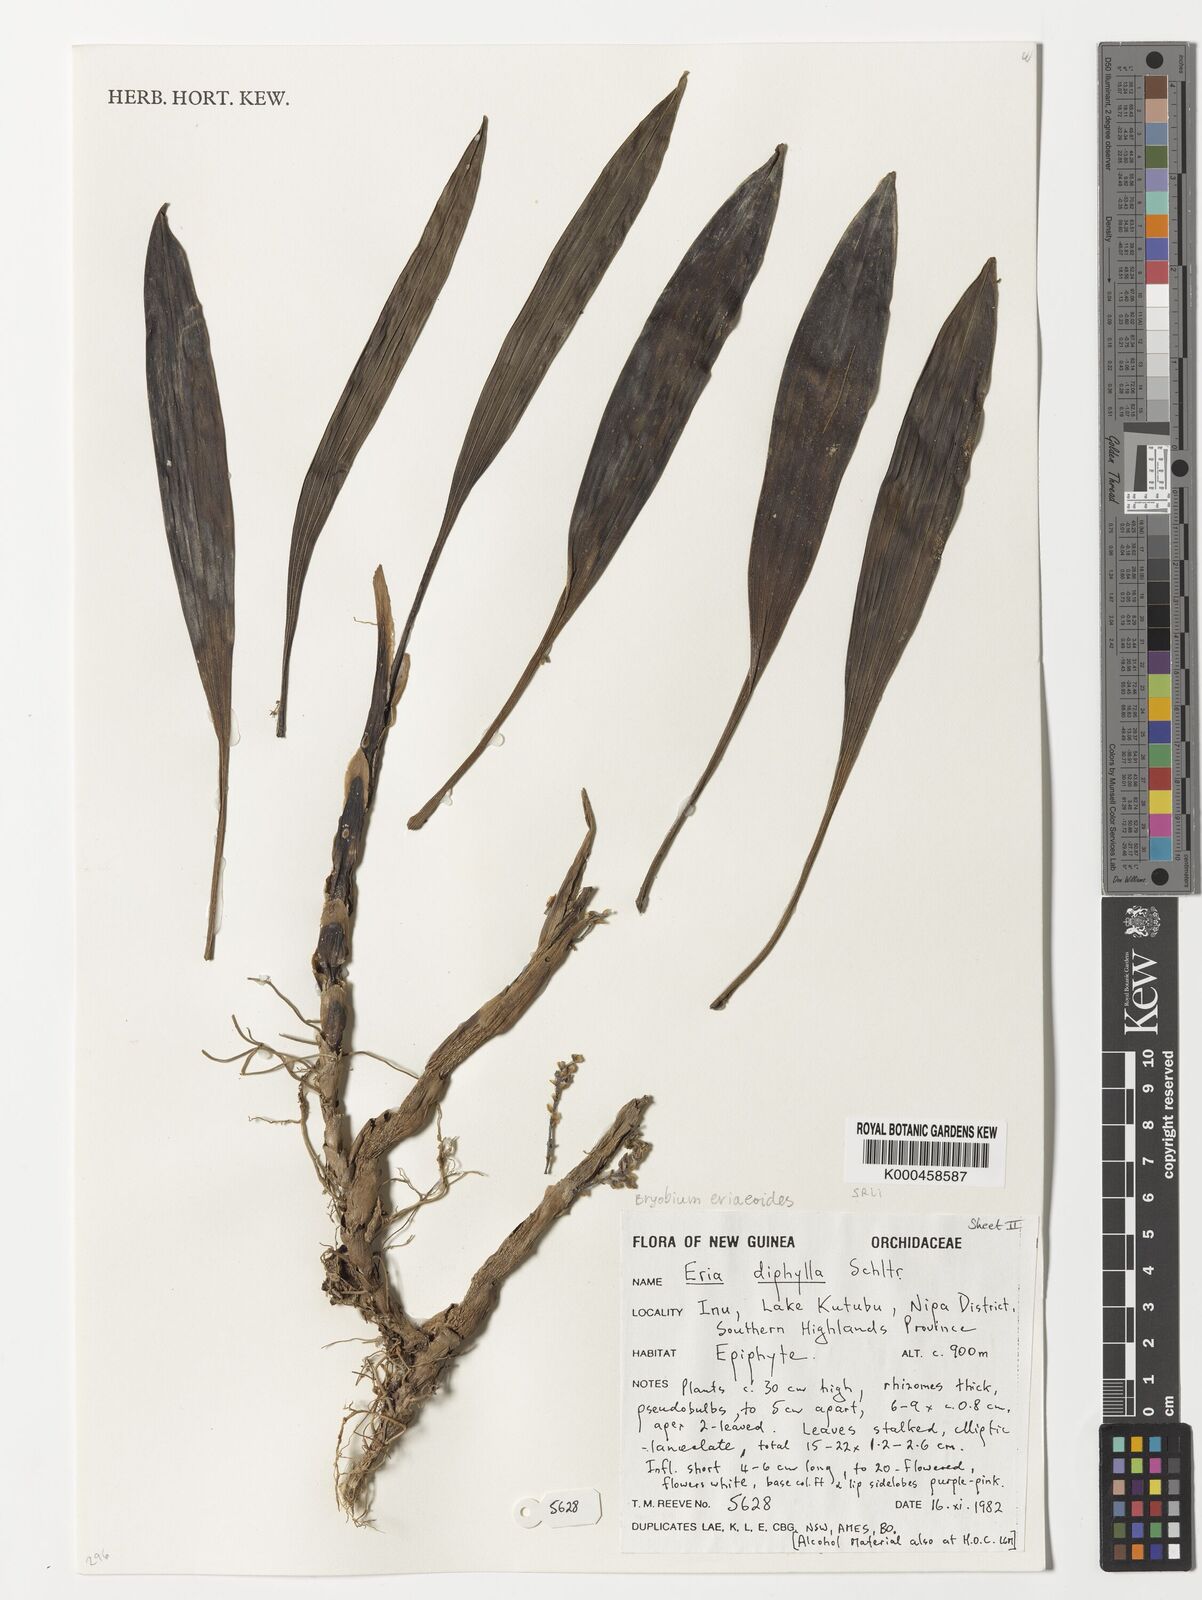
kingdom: Plantae
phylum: Tracheophyta
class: Liliopsida
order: Asparagales
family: Orchidaceae
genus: Bryobium
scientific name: Bryobium eriaeoides
